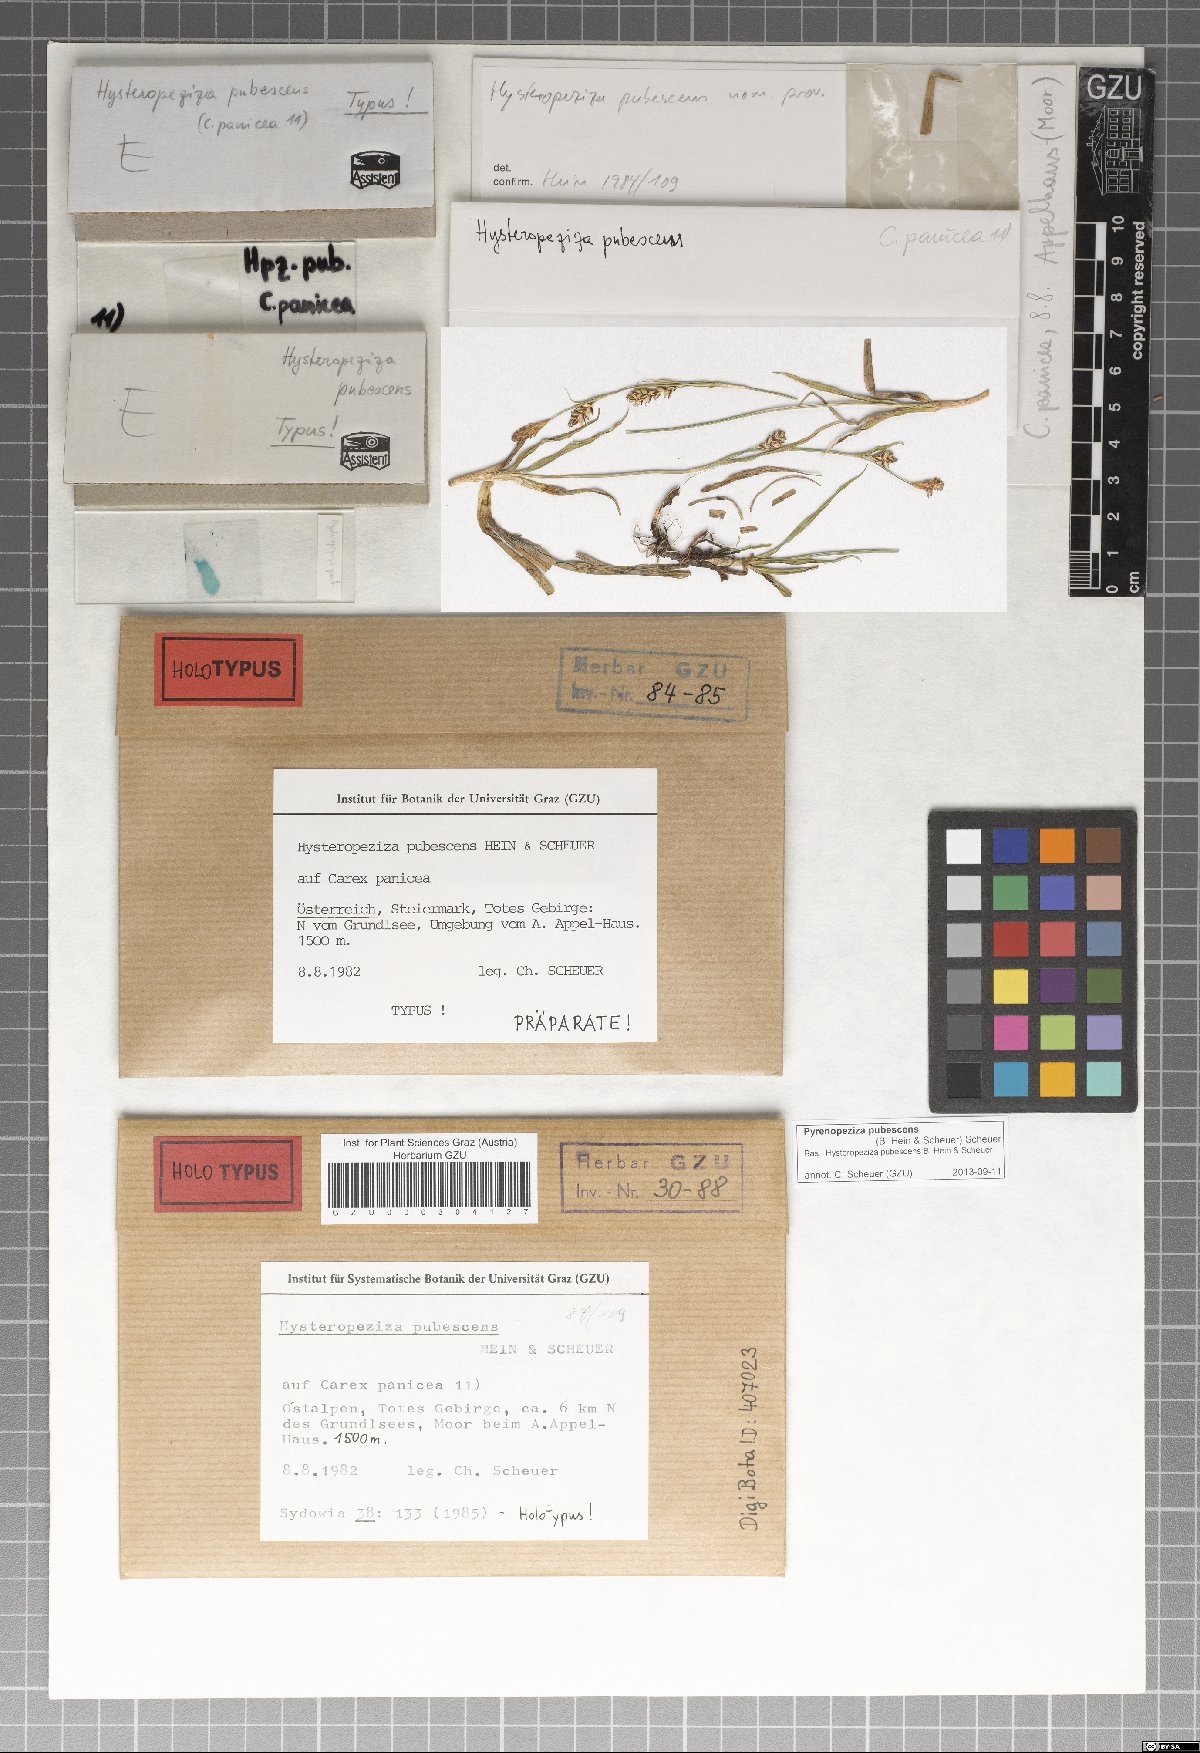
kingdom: Fungi
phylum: Ascomycota
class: Leotiomycetes
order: Helotiales
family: Ploettnerulaceae
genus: Pyrenopeziza
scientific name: Pyrenopeziza pubescens
